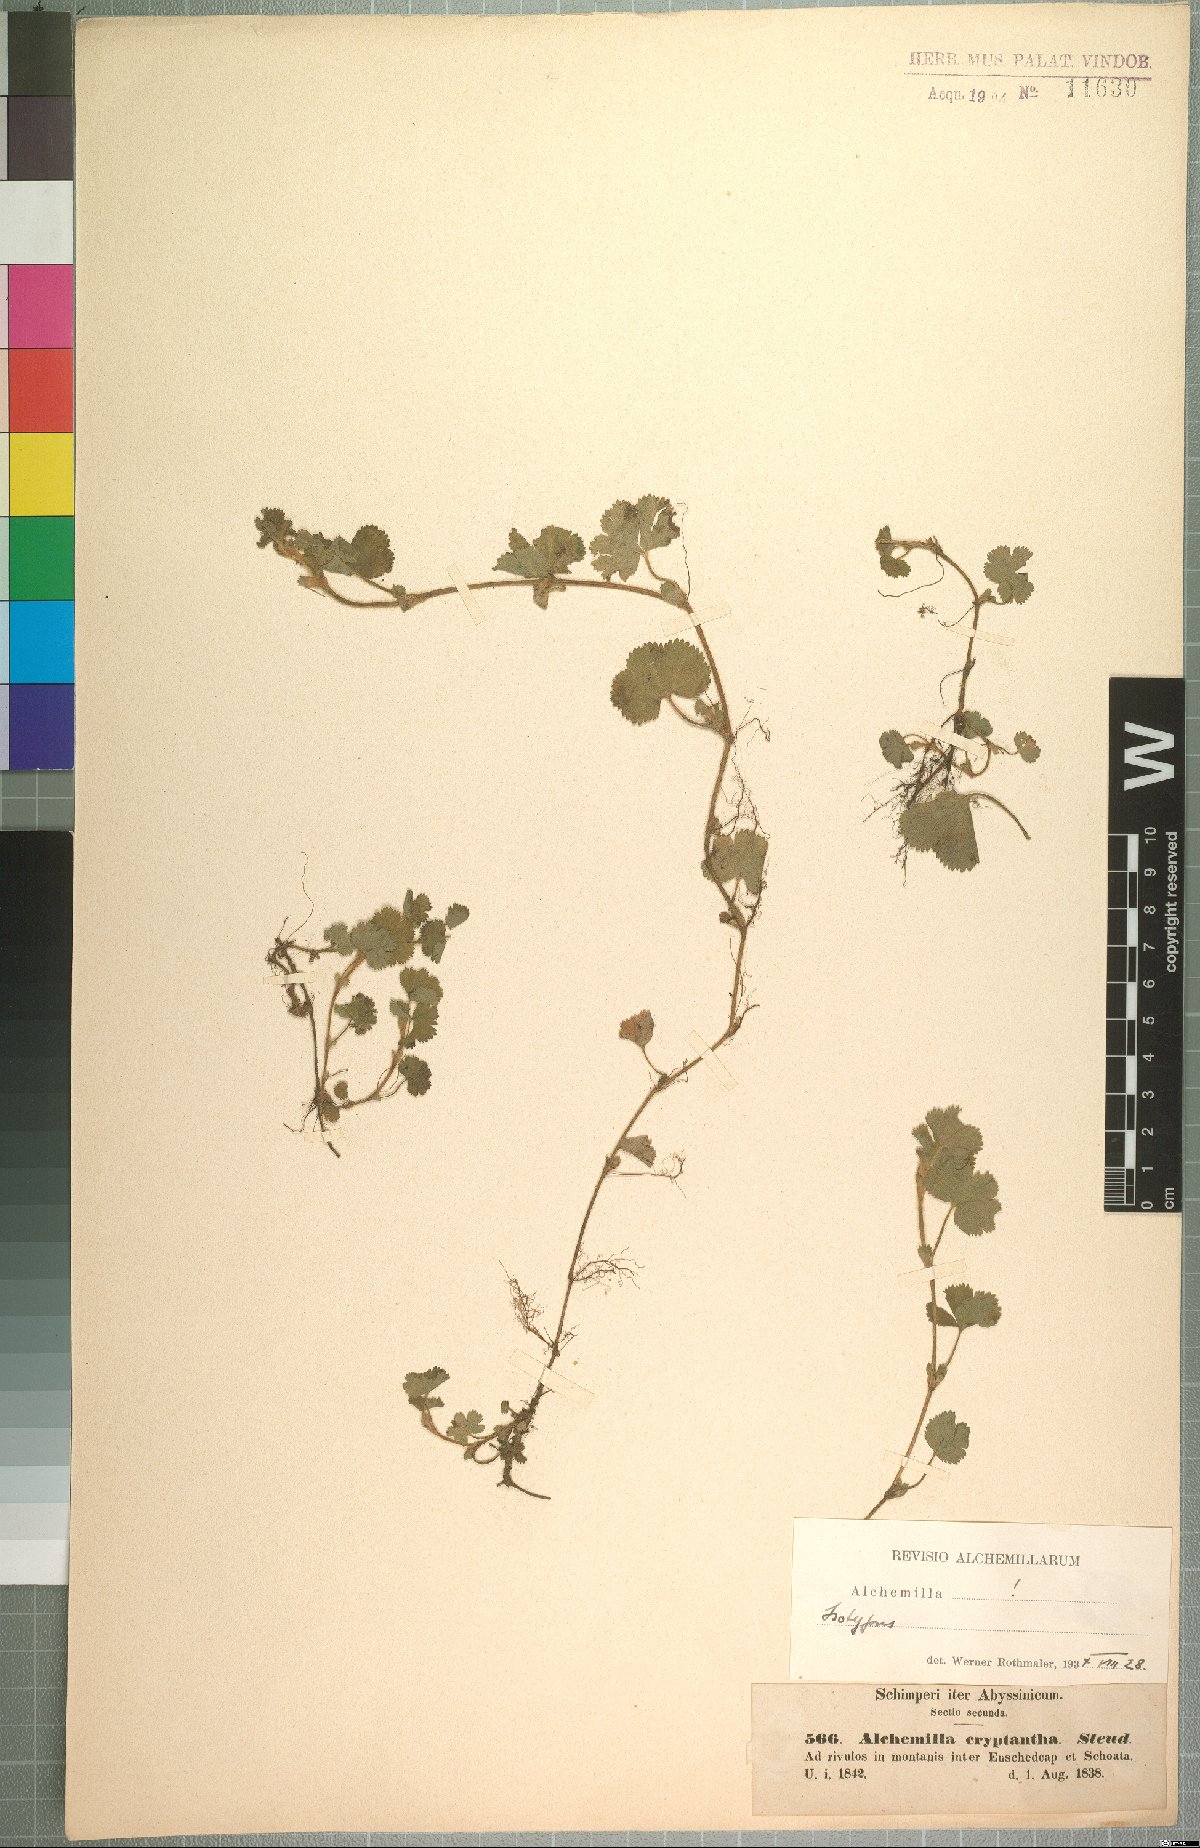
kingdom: Plantae
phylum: Tracheophyta
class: Magnoliopsida
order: Rosales
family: Rosaceae
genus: Alchemilla
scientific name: Alchemilla cryptantha
